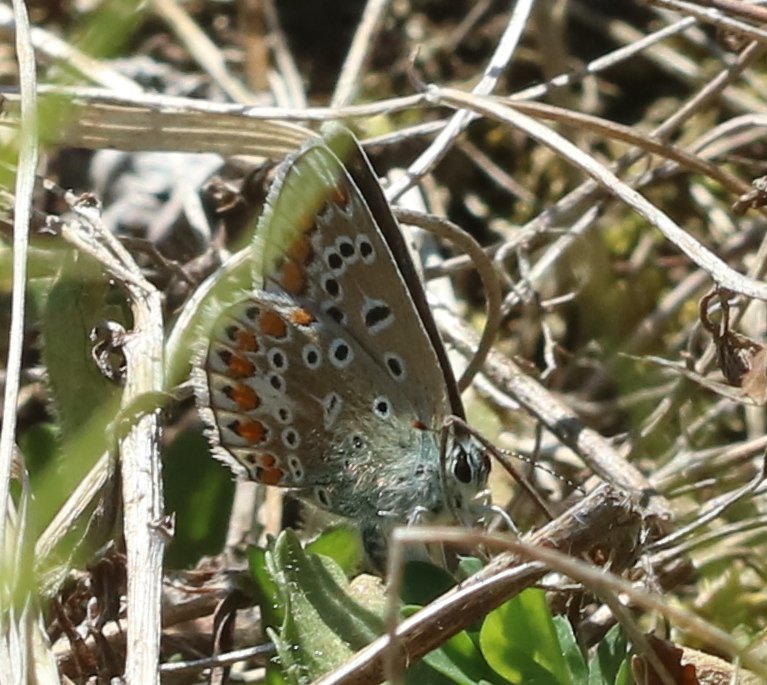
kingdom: Animalia
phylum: Arthropoda
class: Insecta
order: Lepidoptera
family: Lycaenidae
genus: Polyommatus
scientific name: Polyommatus icarus
